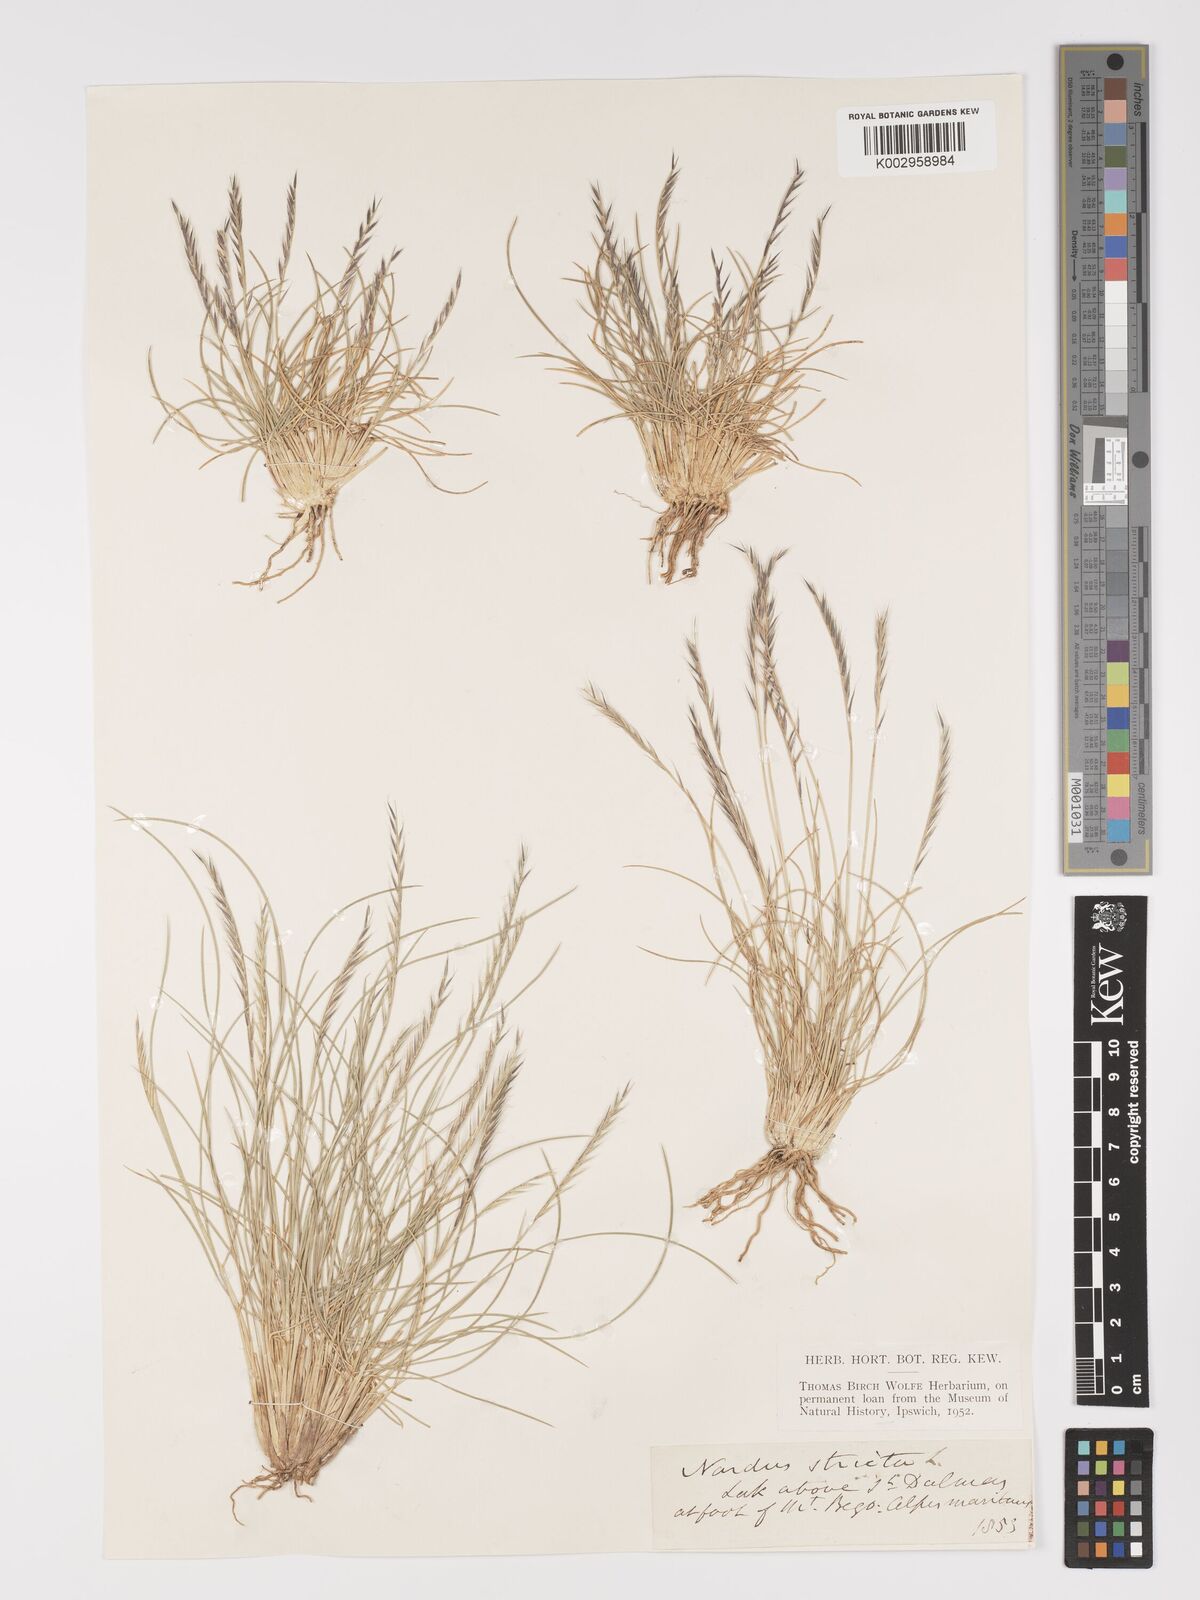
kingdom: Plantae
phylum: Tracheophyta
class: Liliopsida
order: Poales
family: Poaceae
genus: Nardus
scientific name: Nardus stricta
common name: Mat-grass
